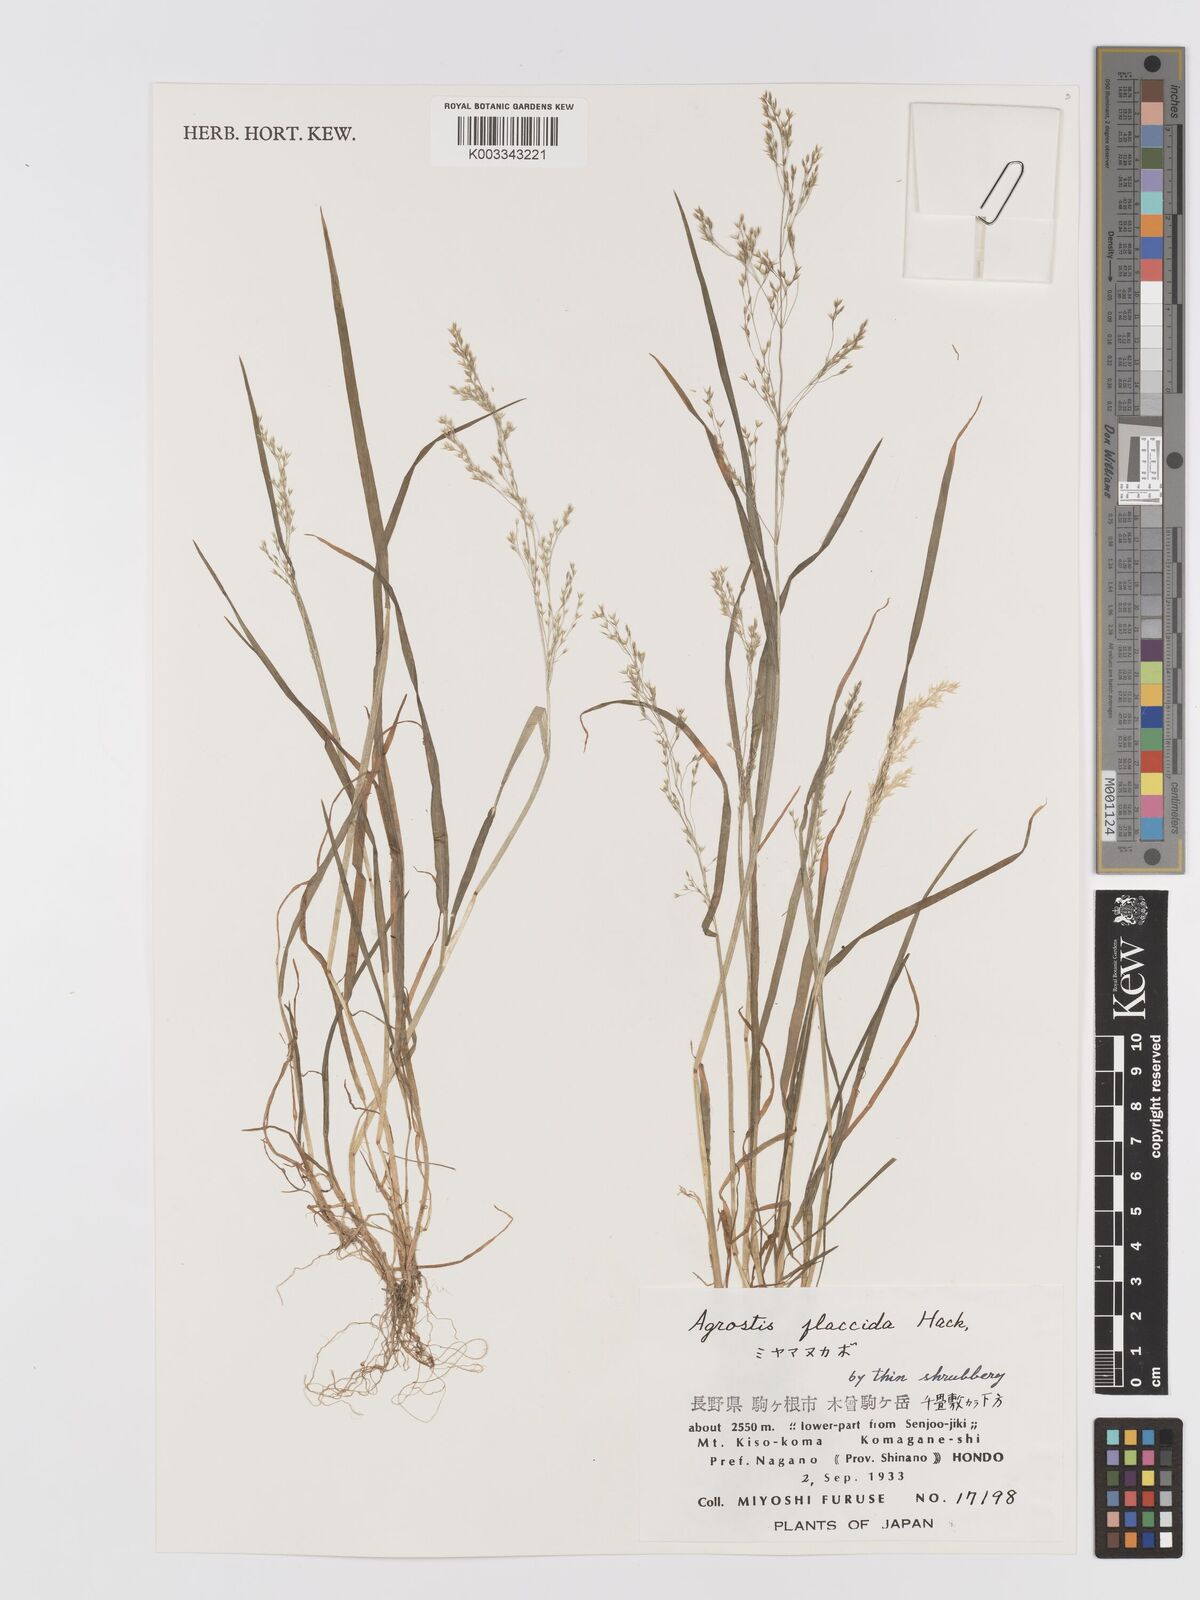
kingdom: Plantae
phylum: Tracheophyta
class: Liliopsida
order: Poales
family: Poaceae
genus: Agrostis
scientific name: Agrostis flaccida
